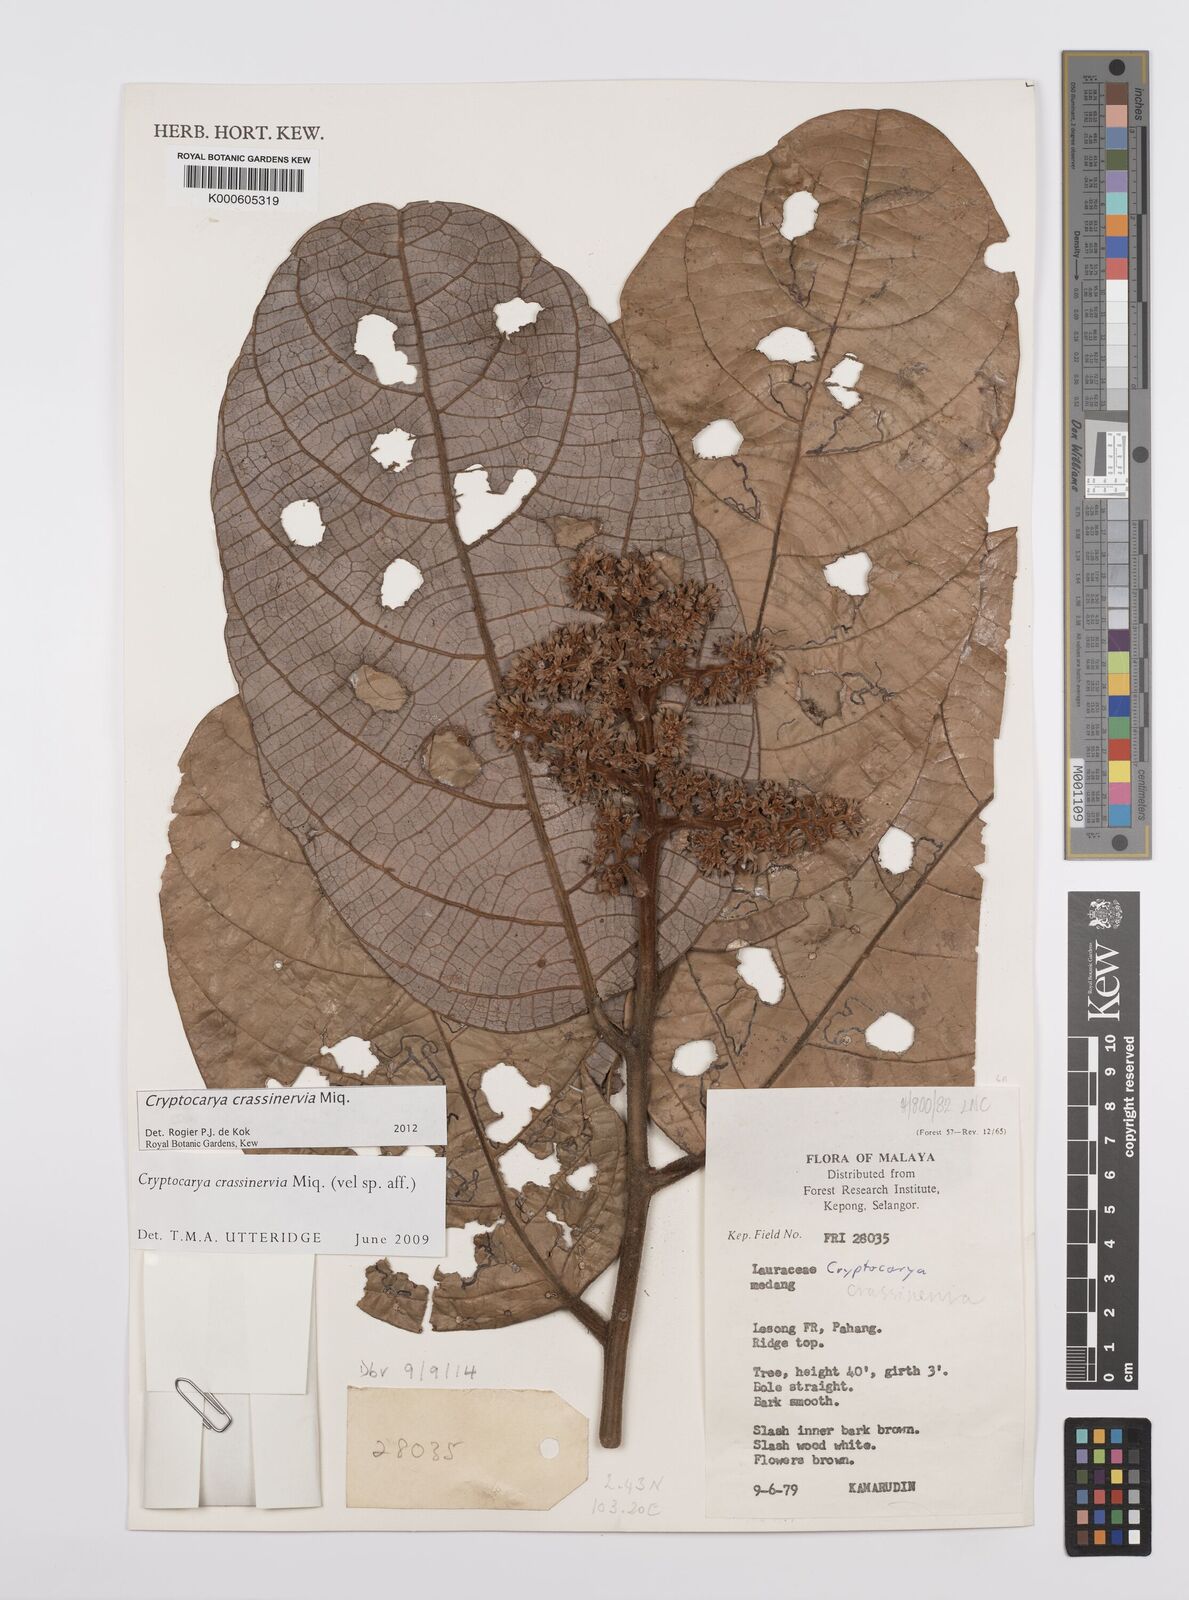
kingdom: Plantae
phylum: Tracheophyta
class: Magnoliopsida
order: Laurales
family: Lauraceae
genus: Cryptocarya
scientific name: Cryptocarya diversifolia
